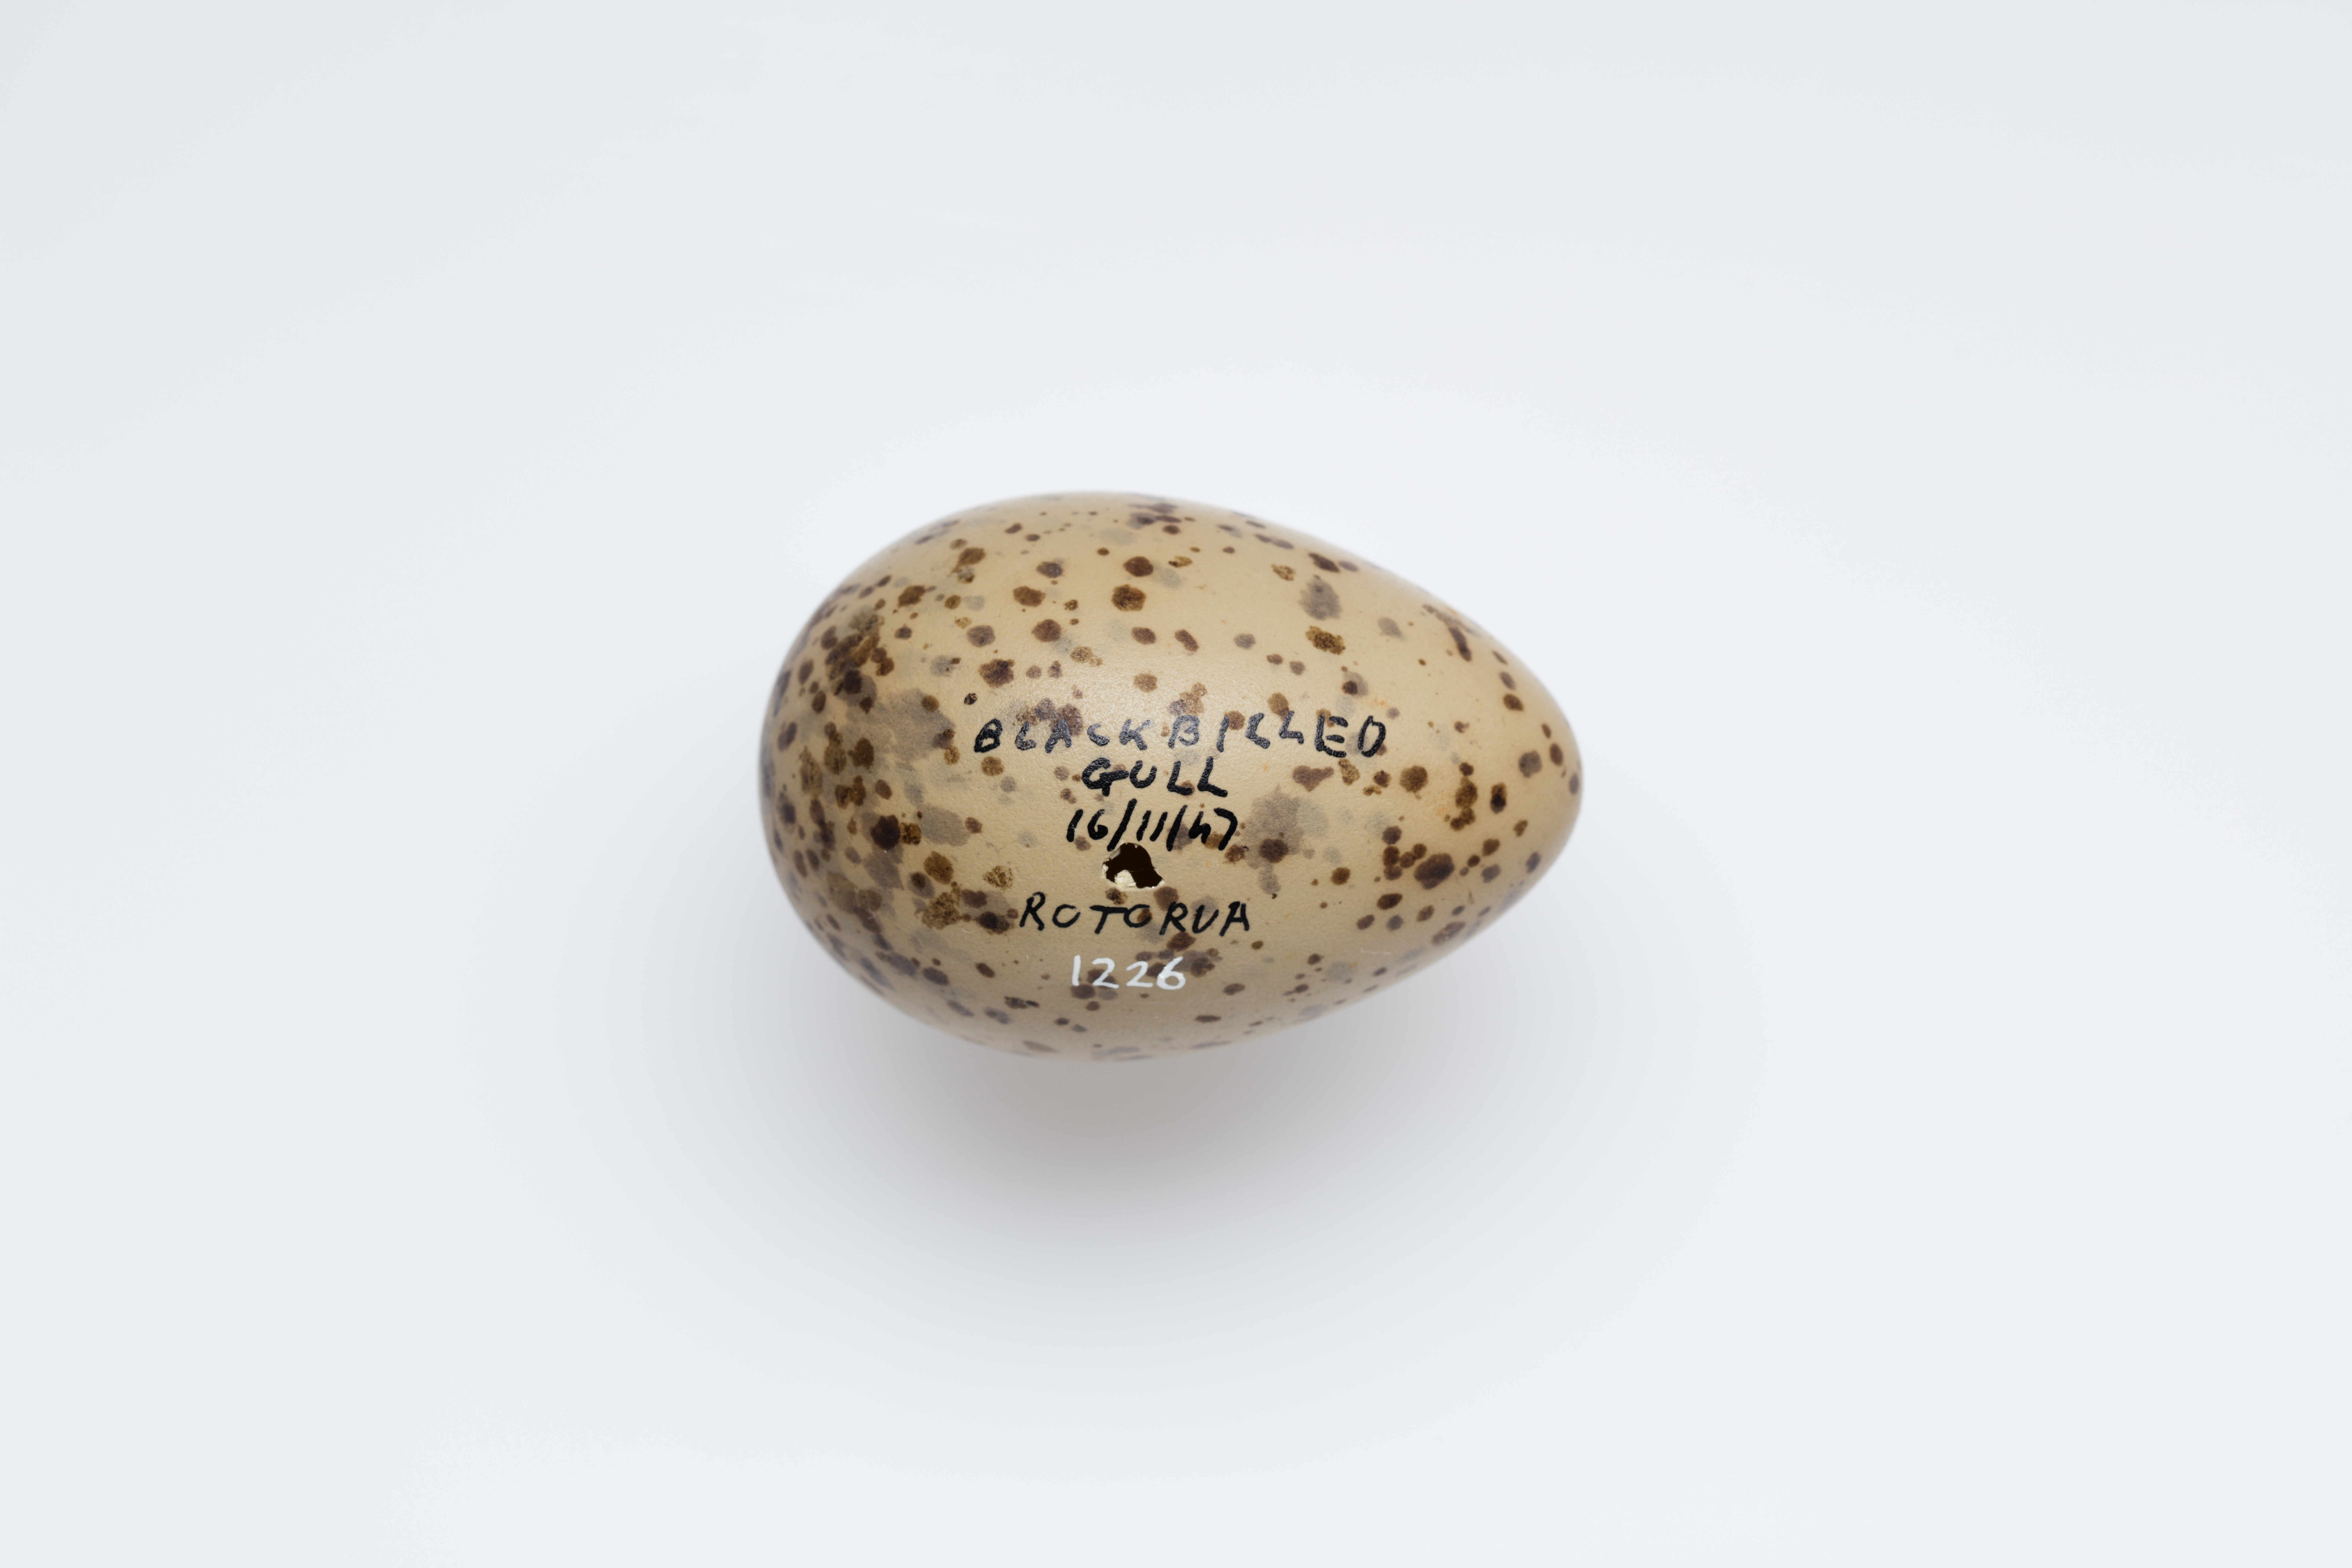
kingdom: Animalia
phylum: Chordata
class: Aves
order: Charadriiformes
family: Laridae
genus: Chroicocephalus
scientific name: Chroicocephalus bulleri
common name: Black-billed gull
